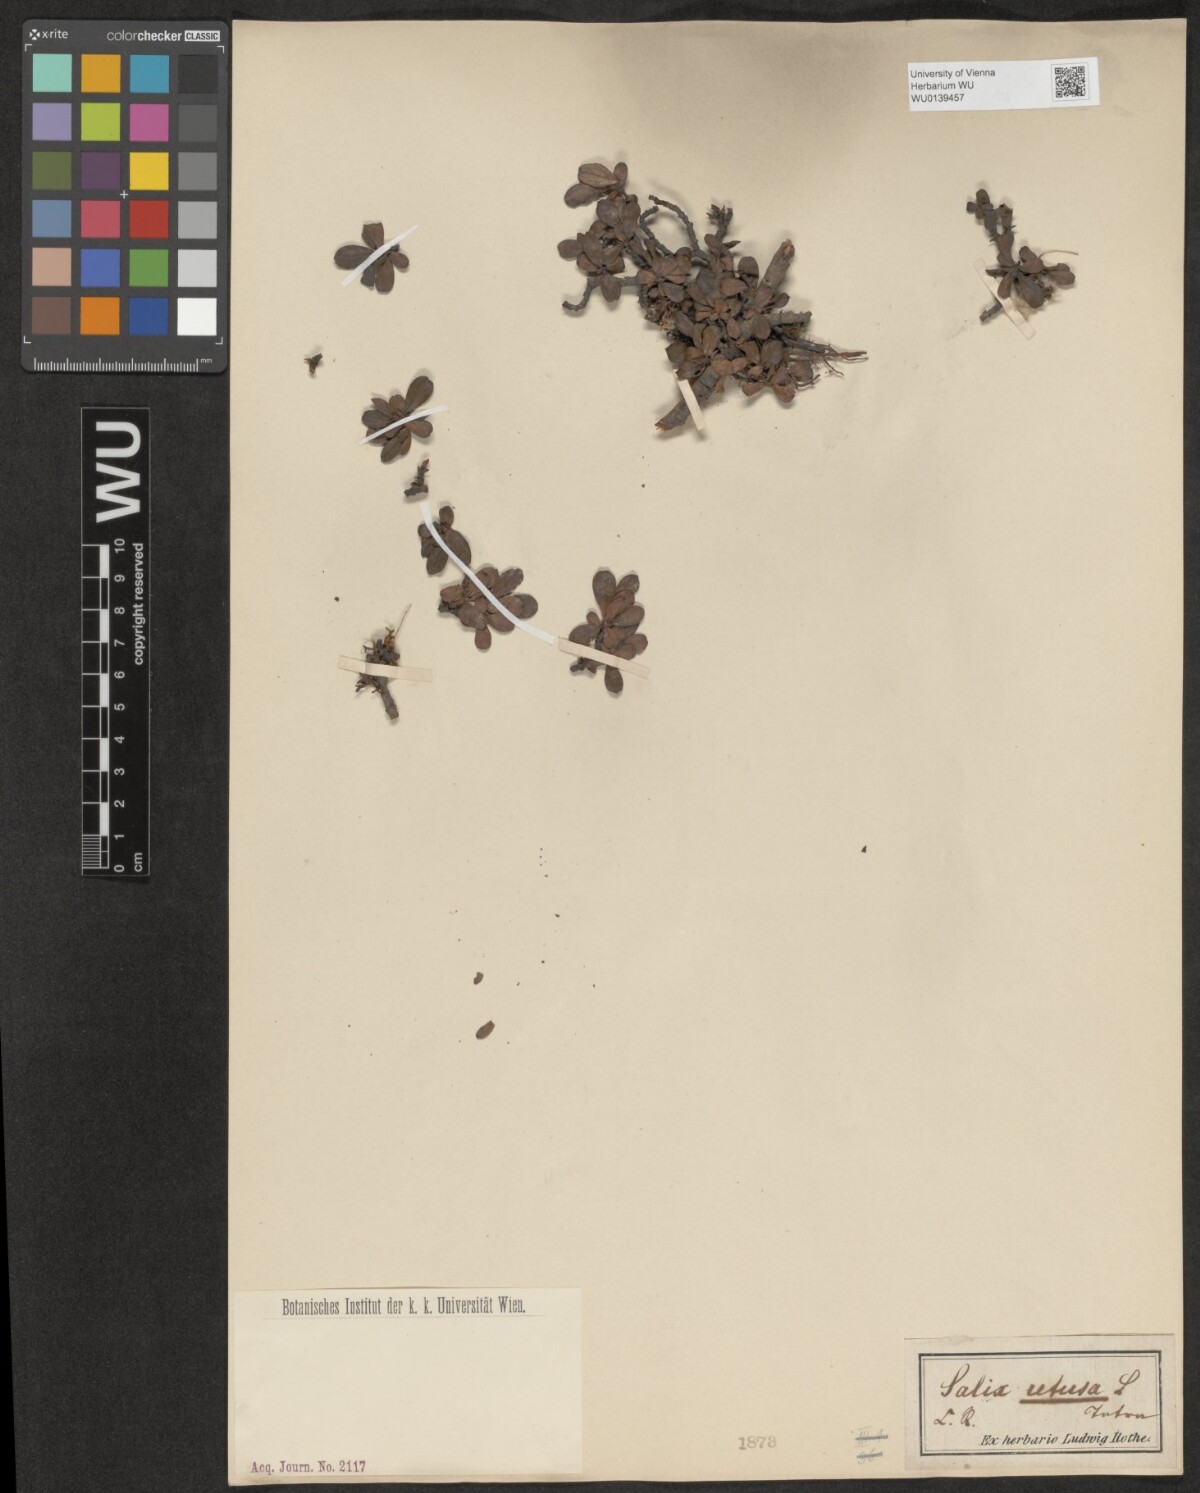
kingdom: Plantae
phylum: Tracheophyta
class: Magnoliopsida
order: Malpighiales
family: Salicaceae
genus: Salix
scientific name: Salix retusa
